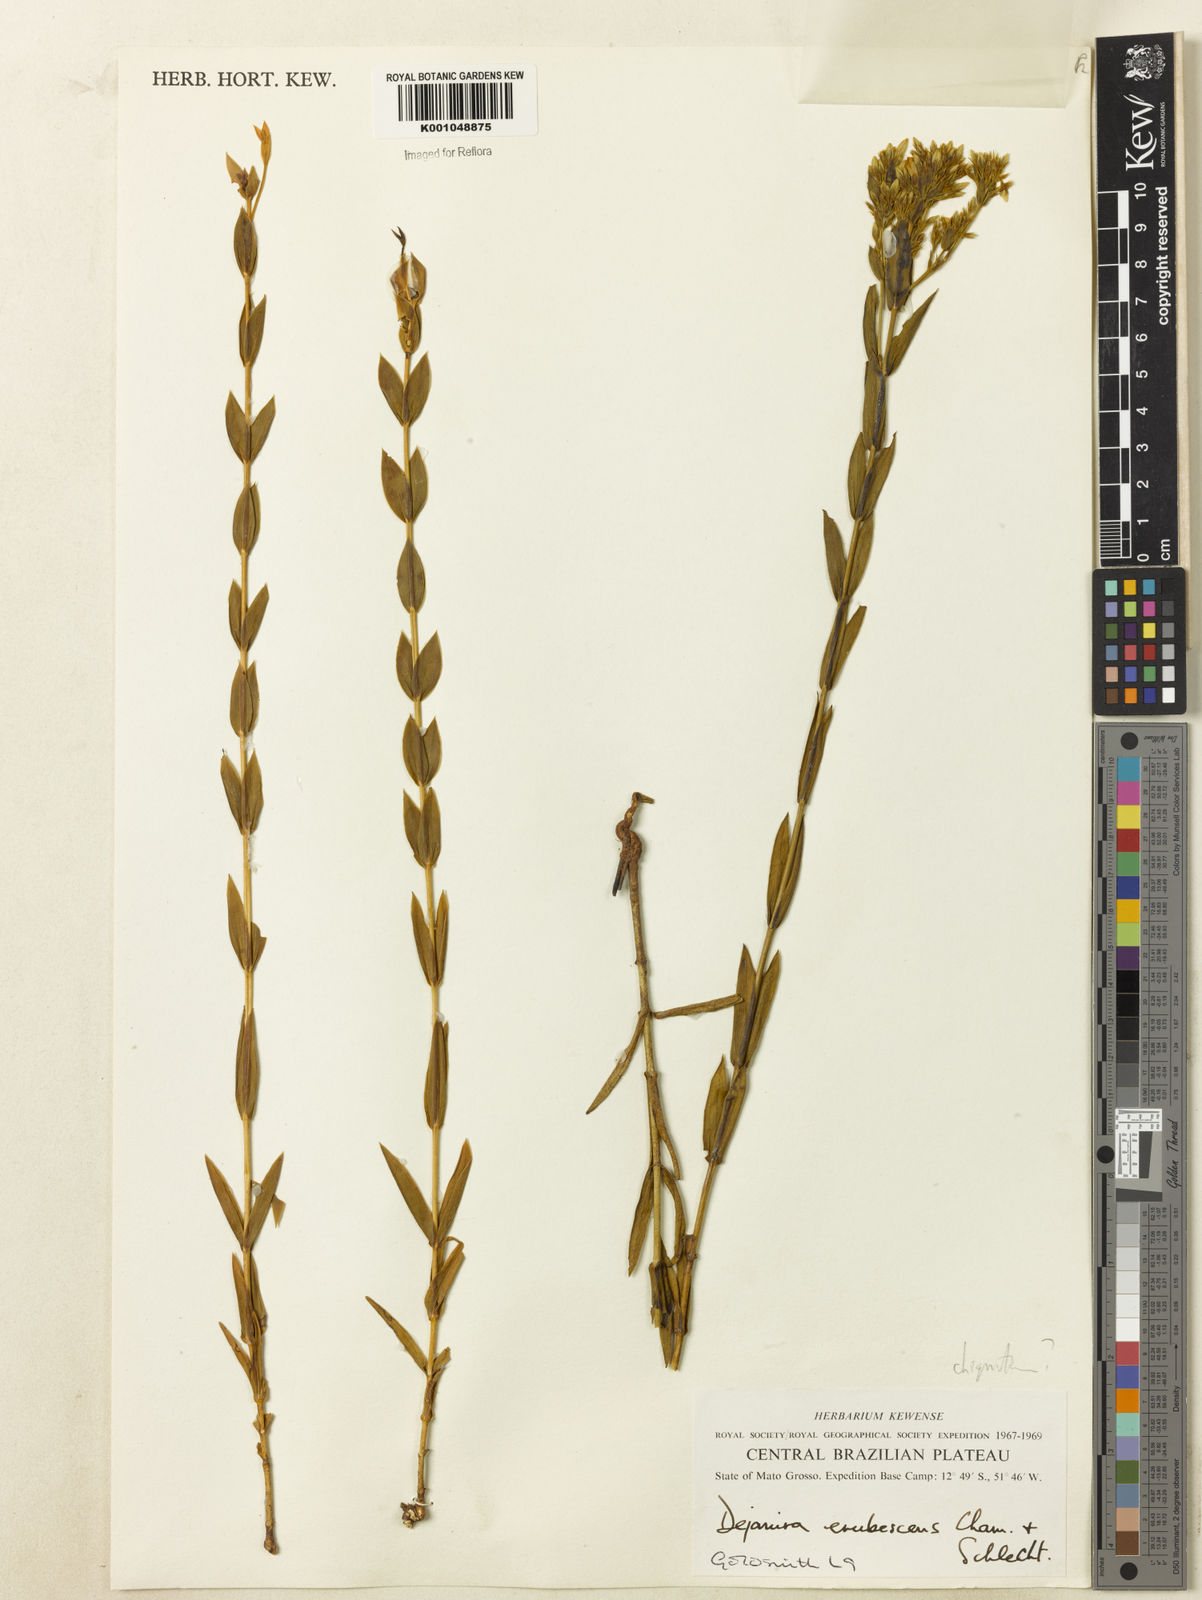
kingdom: Plantae
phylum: Tracheophyta
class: Magnoliopsida
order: Gentianales
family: Gentianaceae
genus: Deianira
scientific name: Deianira chiquitana
